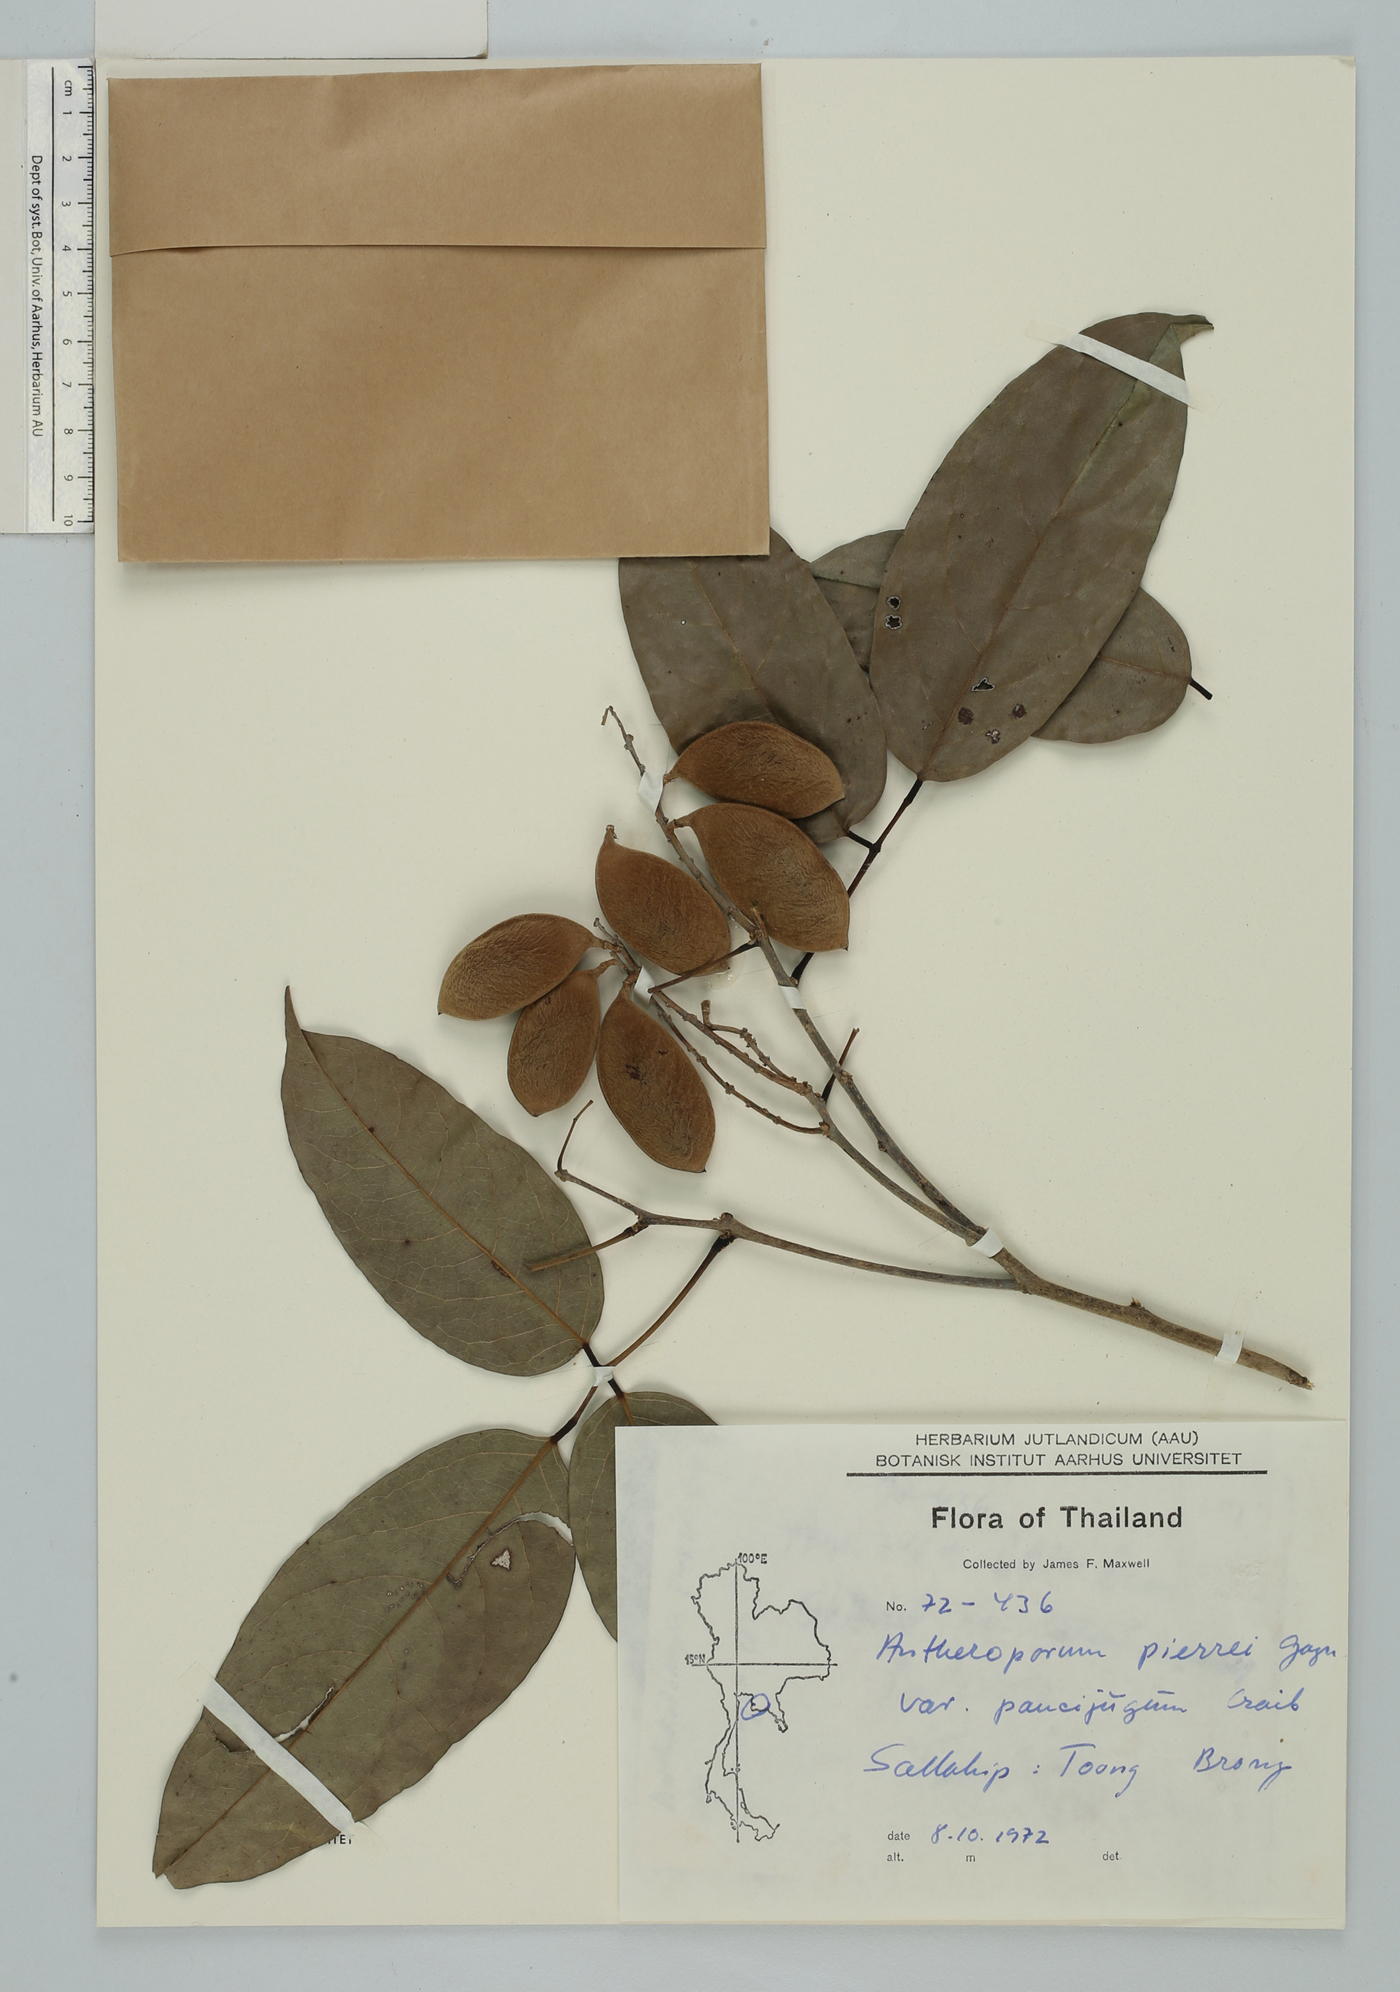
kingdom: Plantae
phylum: Tracheophyta
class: Magnoliopsida
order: Fabales
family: Fabaceae
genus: Antheroporum
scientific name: Antheroporum pierrei
